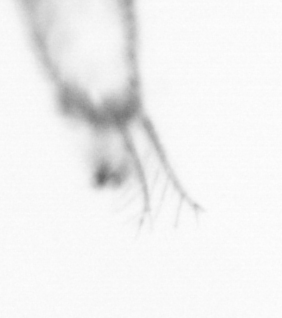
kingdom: Animalia
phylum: Chordata
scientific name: Chordata
